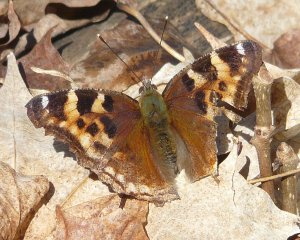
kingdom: Animalia
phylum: Arthropoda
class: Insecta
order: Lepidoptera
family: Nymphalidae
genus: Polygonia
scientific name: Polygonia vaualbum
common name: Compton Tortoiseshell
